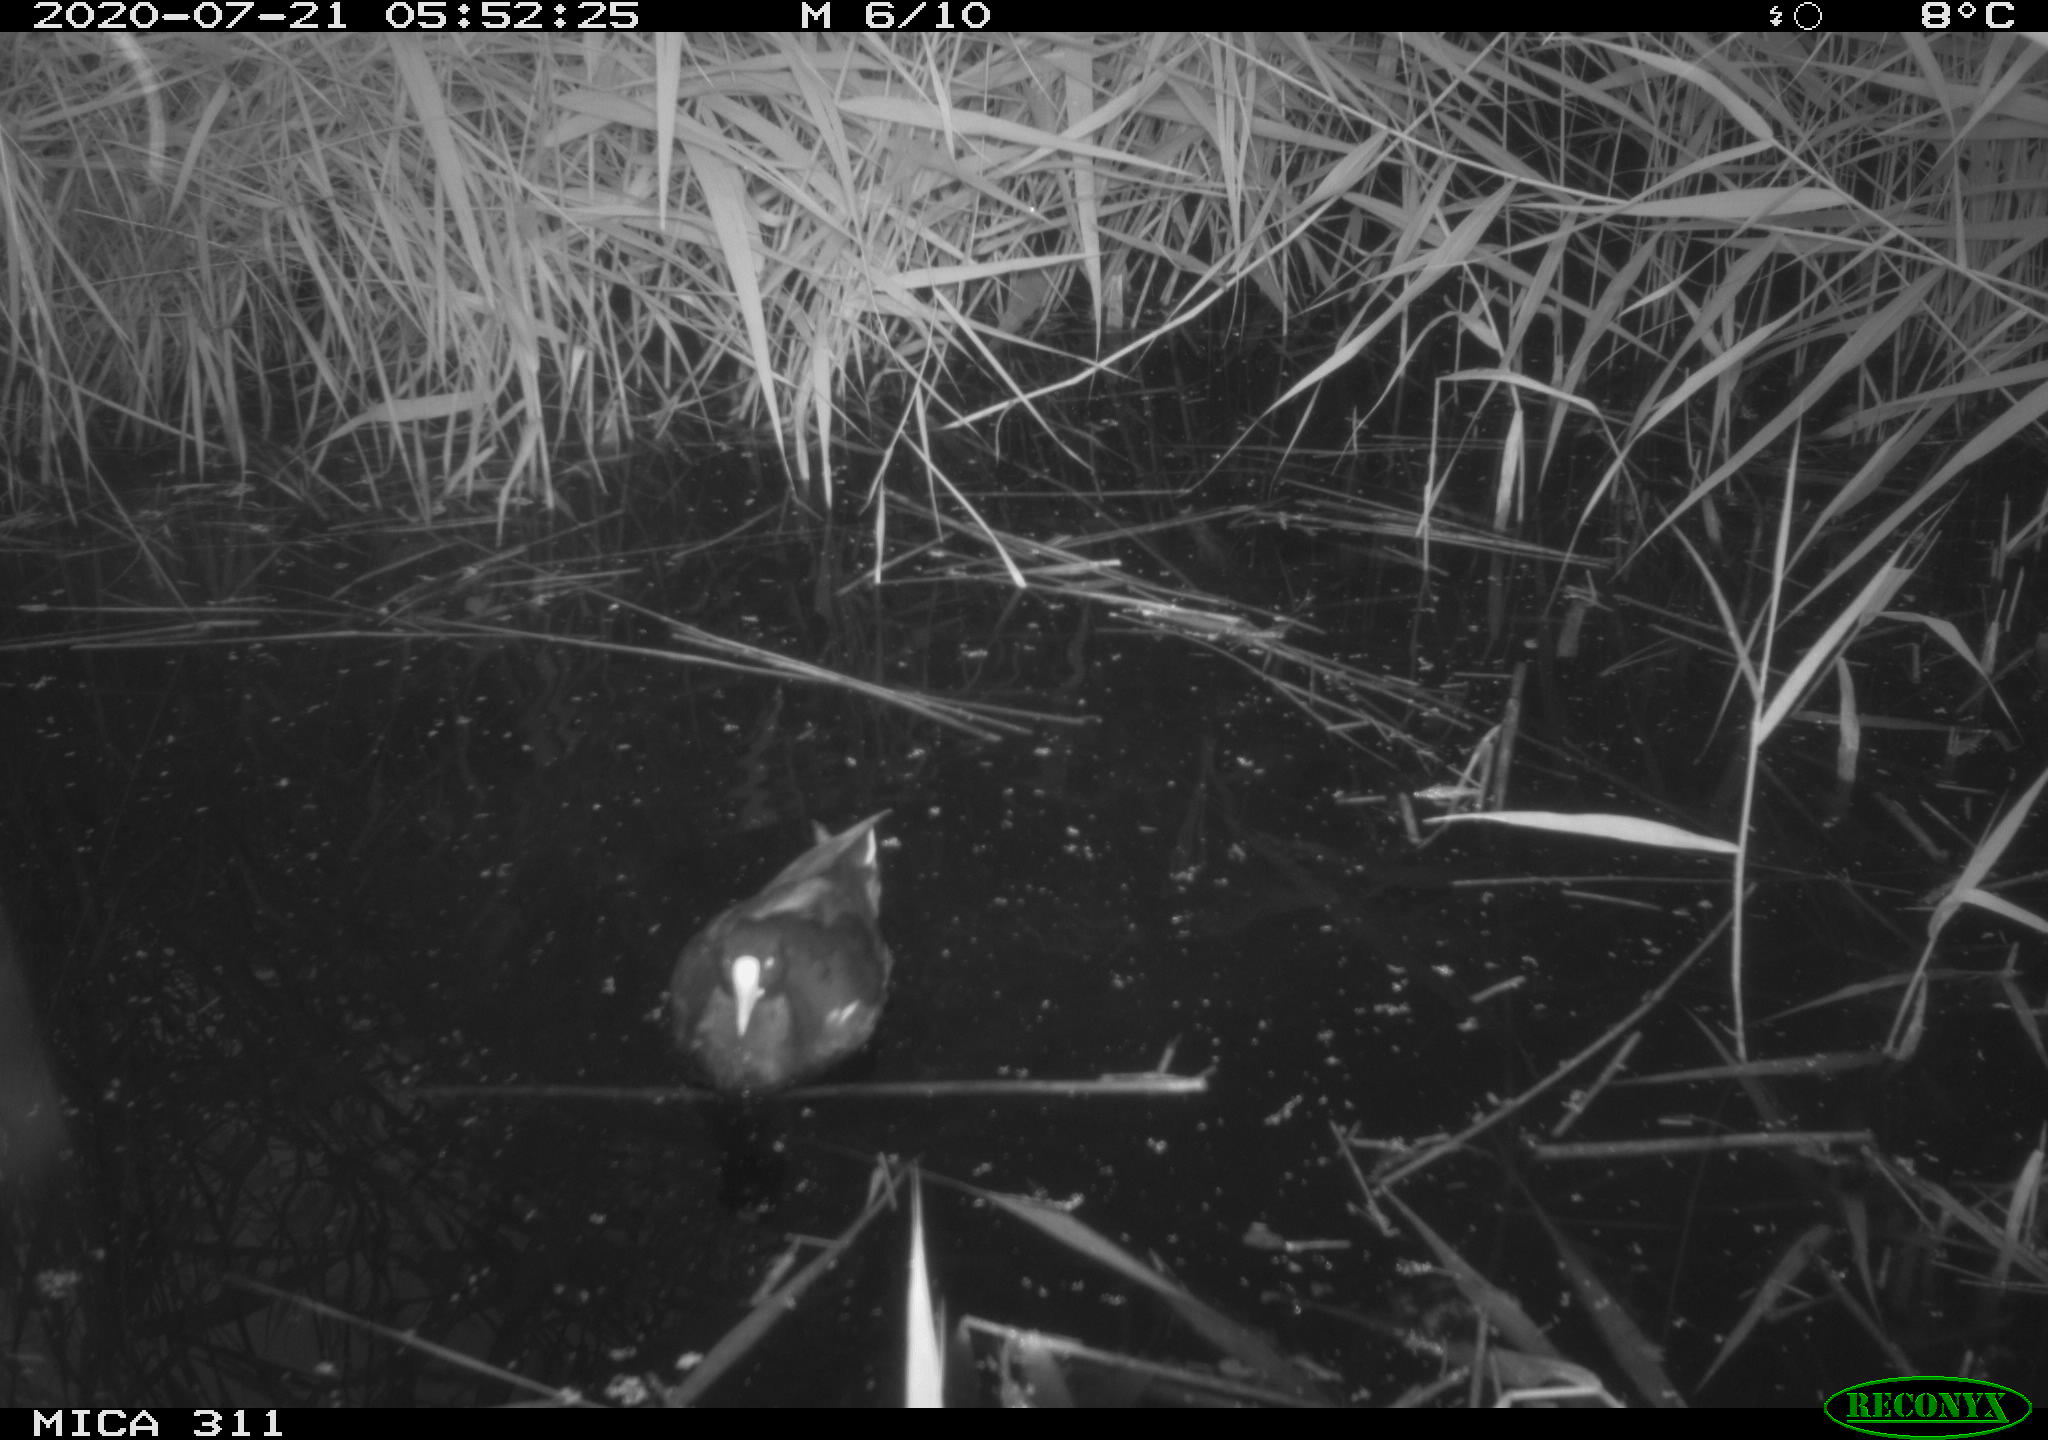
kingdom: Animalia
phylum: Chordata
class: Aves
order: Anseriformes
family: Anatidae
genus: Anas
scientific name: Anas platyrhynchos
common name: Mallard
